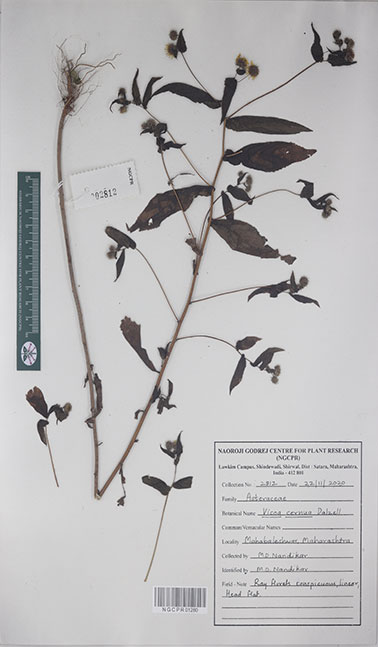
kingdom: Plantae
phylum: Tracheophyta
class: Magnoliopsida
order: Asterales
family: Asteraceae
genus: Vicoa
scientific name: Vicoa cernua
